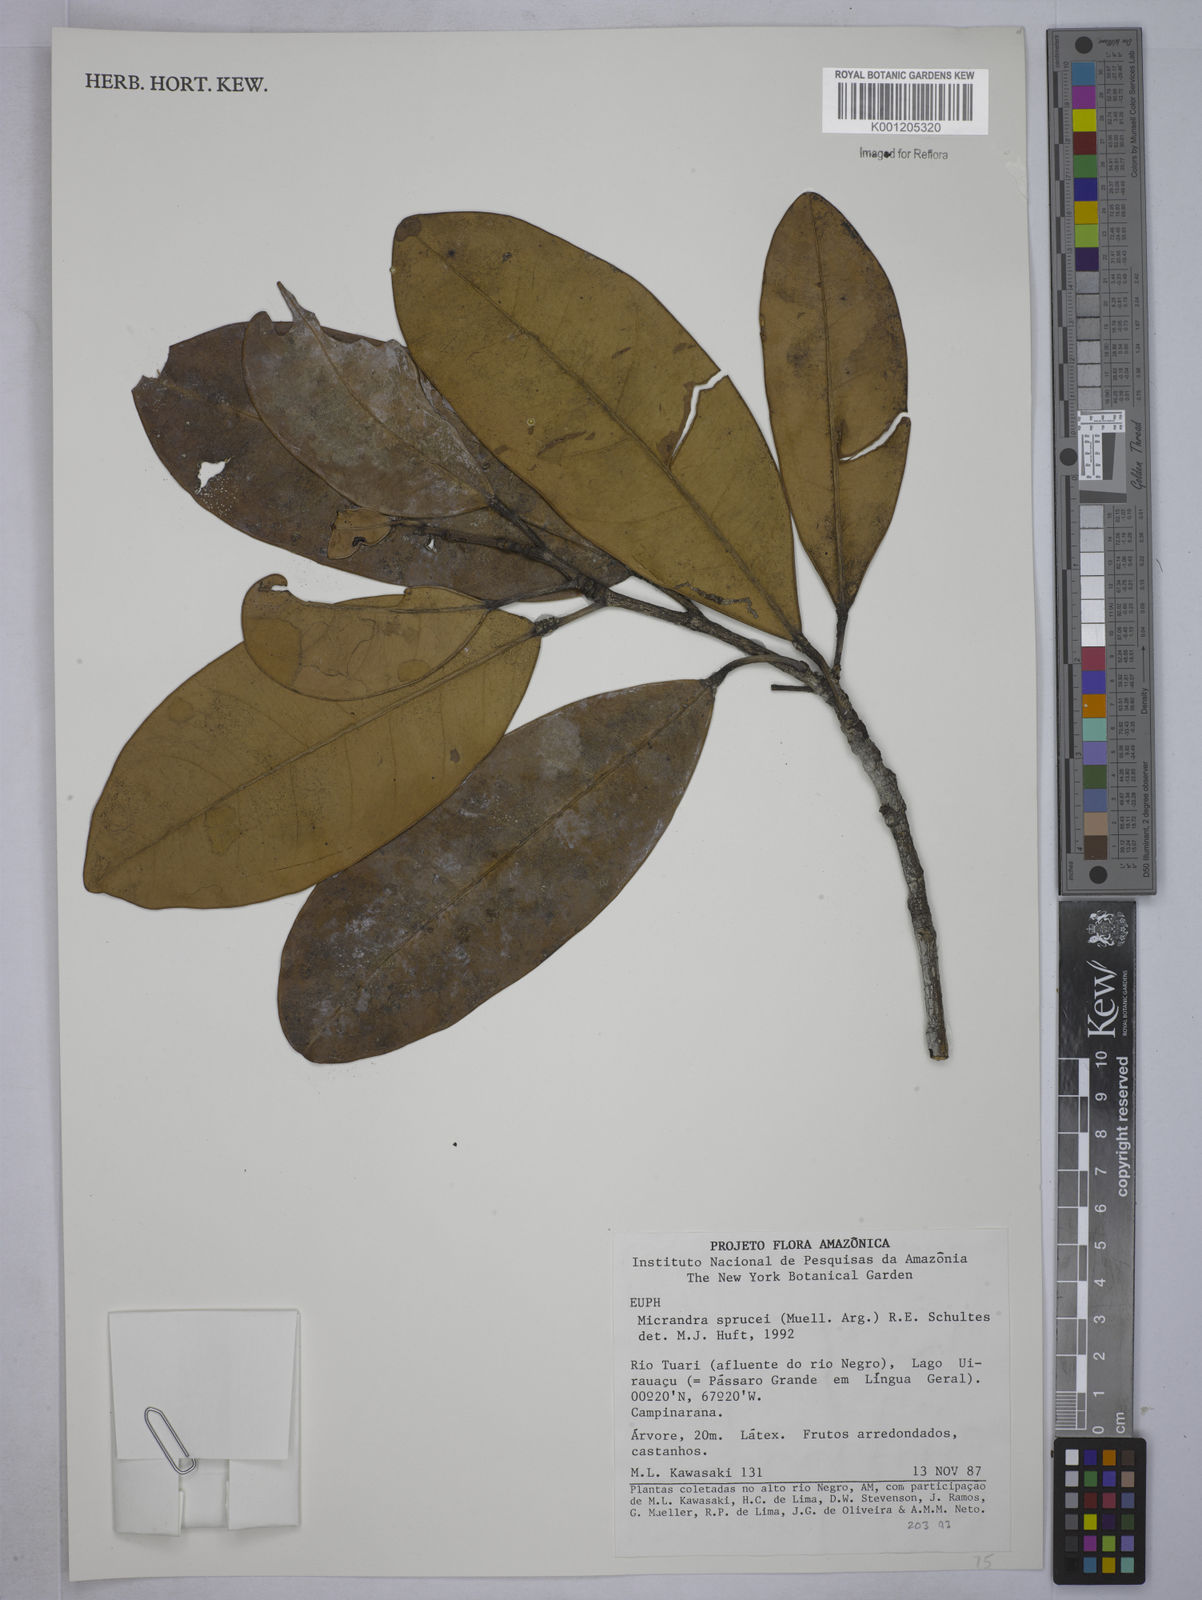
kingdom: Plantae
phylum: Tracheophyta
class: Magnoliopsida
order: Malpighiales
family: Euphorbiaceae
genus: Micrandra
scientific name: Micrandra spruceana
